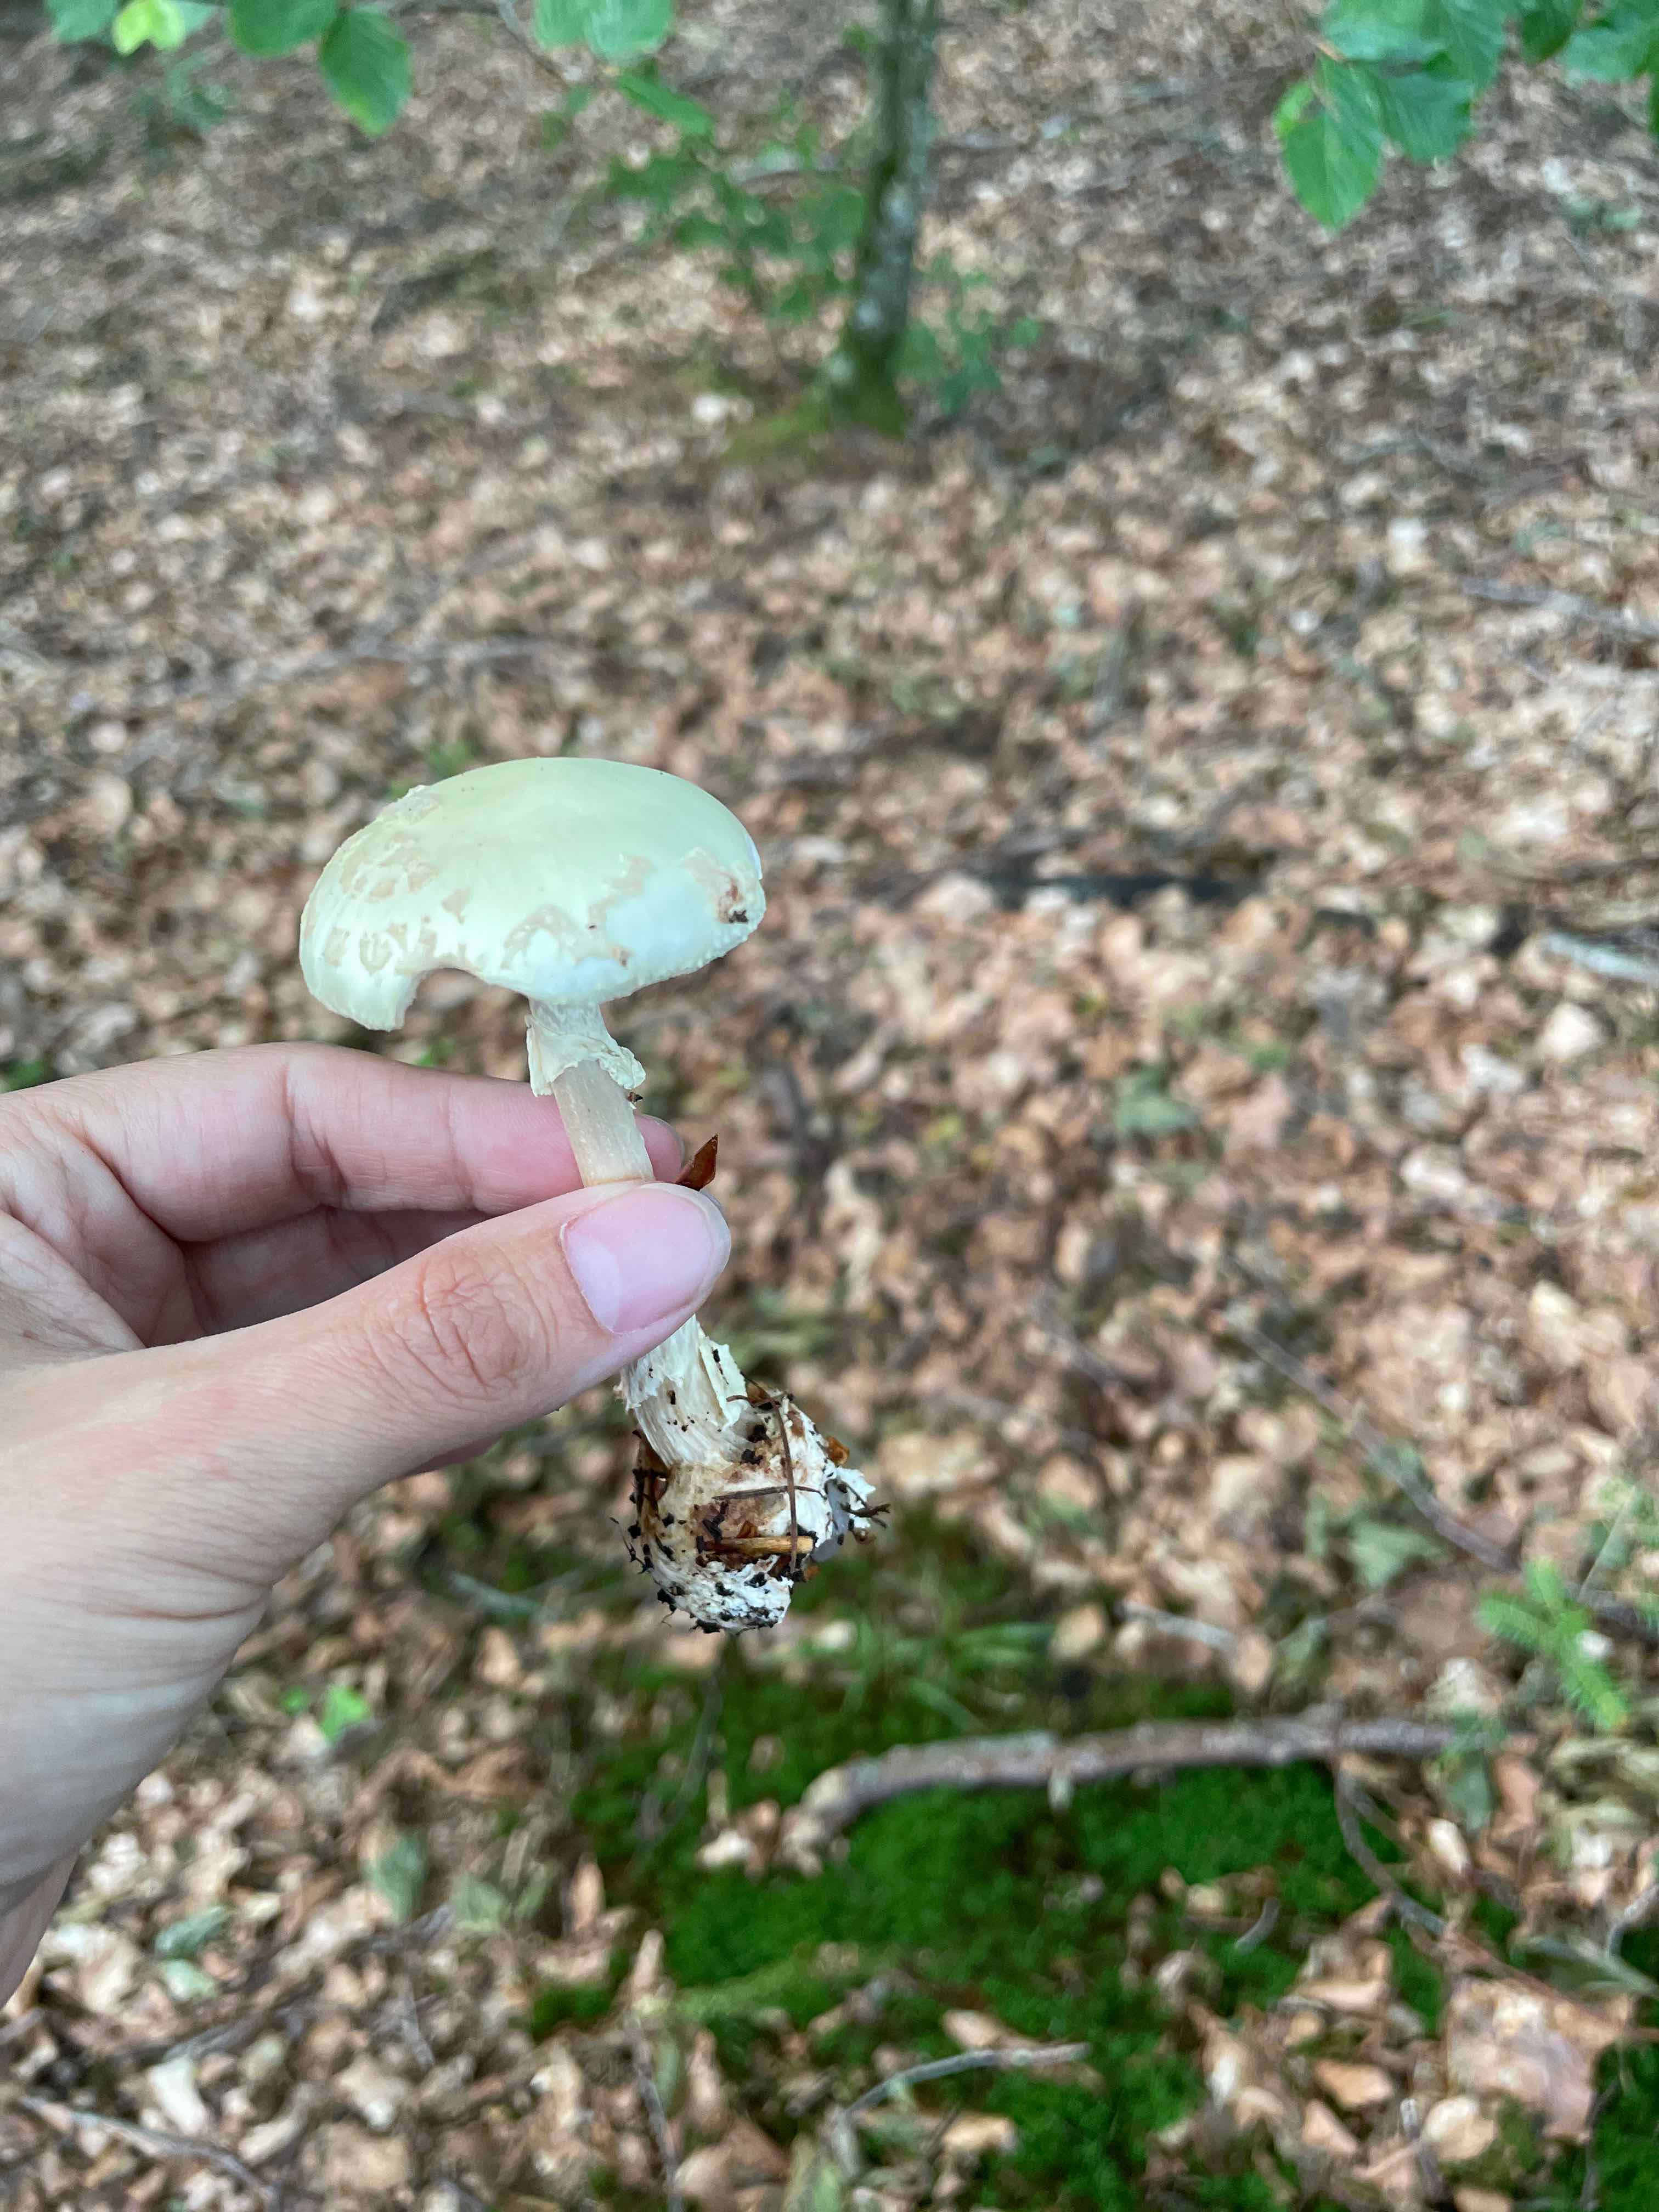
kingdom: Fungi
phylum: Basidiomycota
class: Agaricomycetes
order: Agaricales
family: Amanitaceae
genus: Amanita
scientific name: Amanita citrina
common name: kugleknoldet fluesvamp
